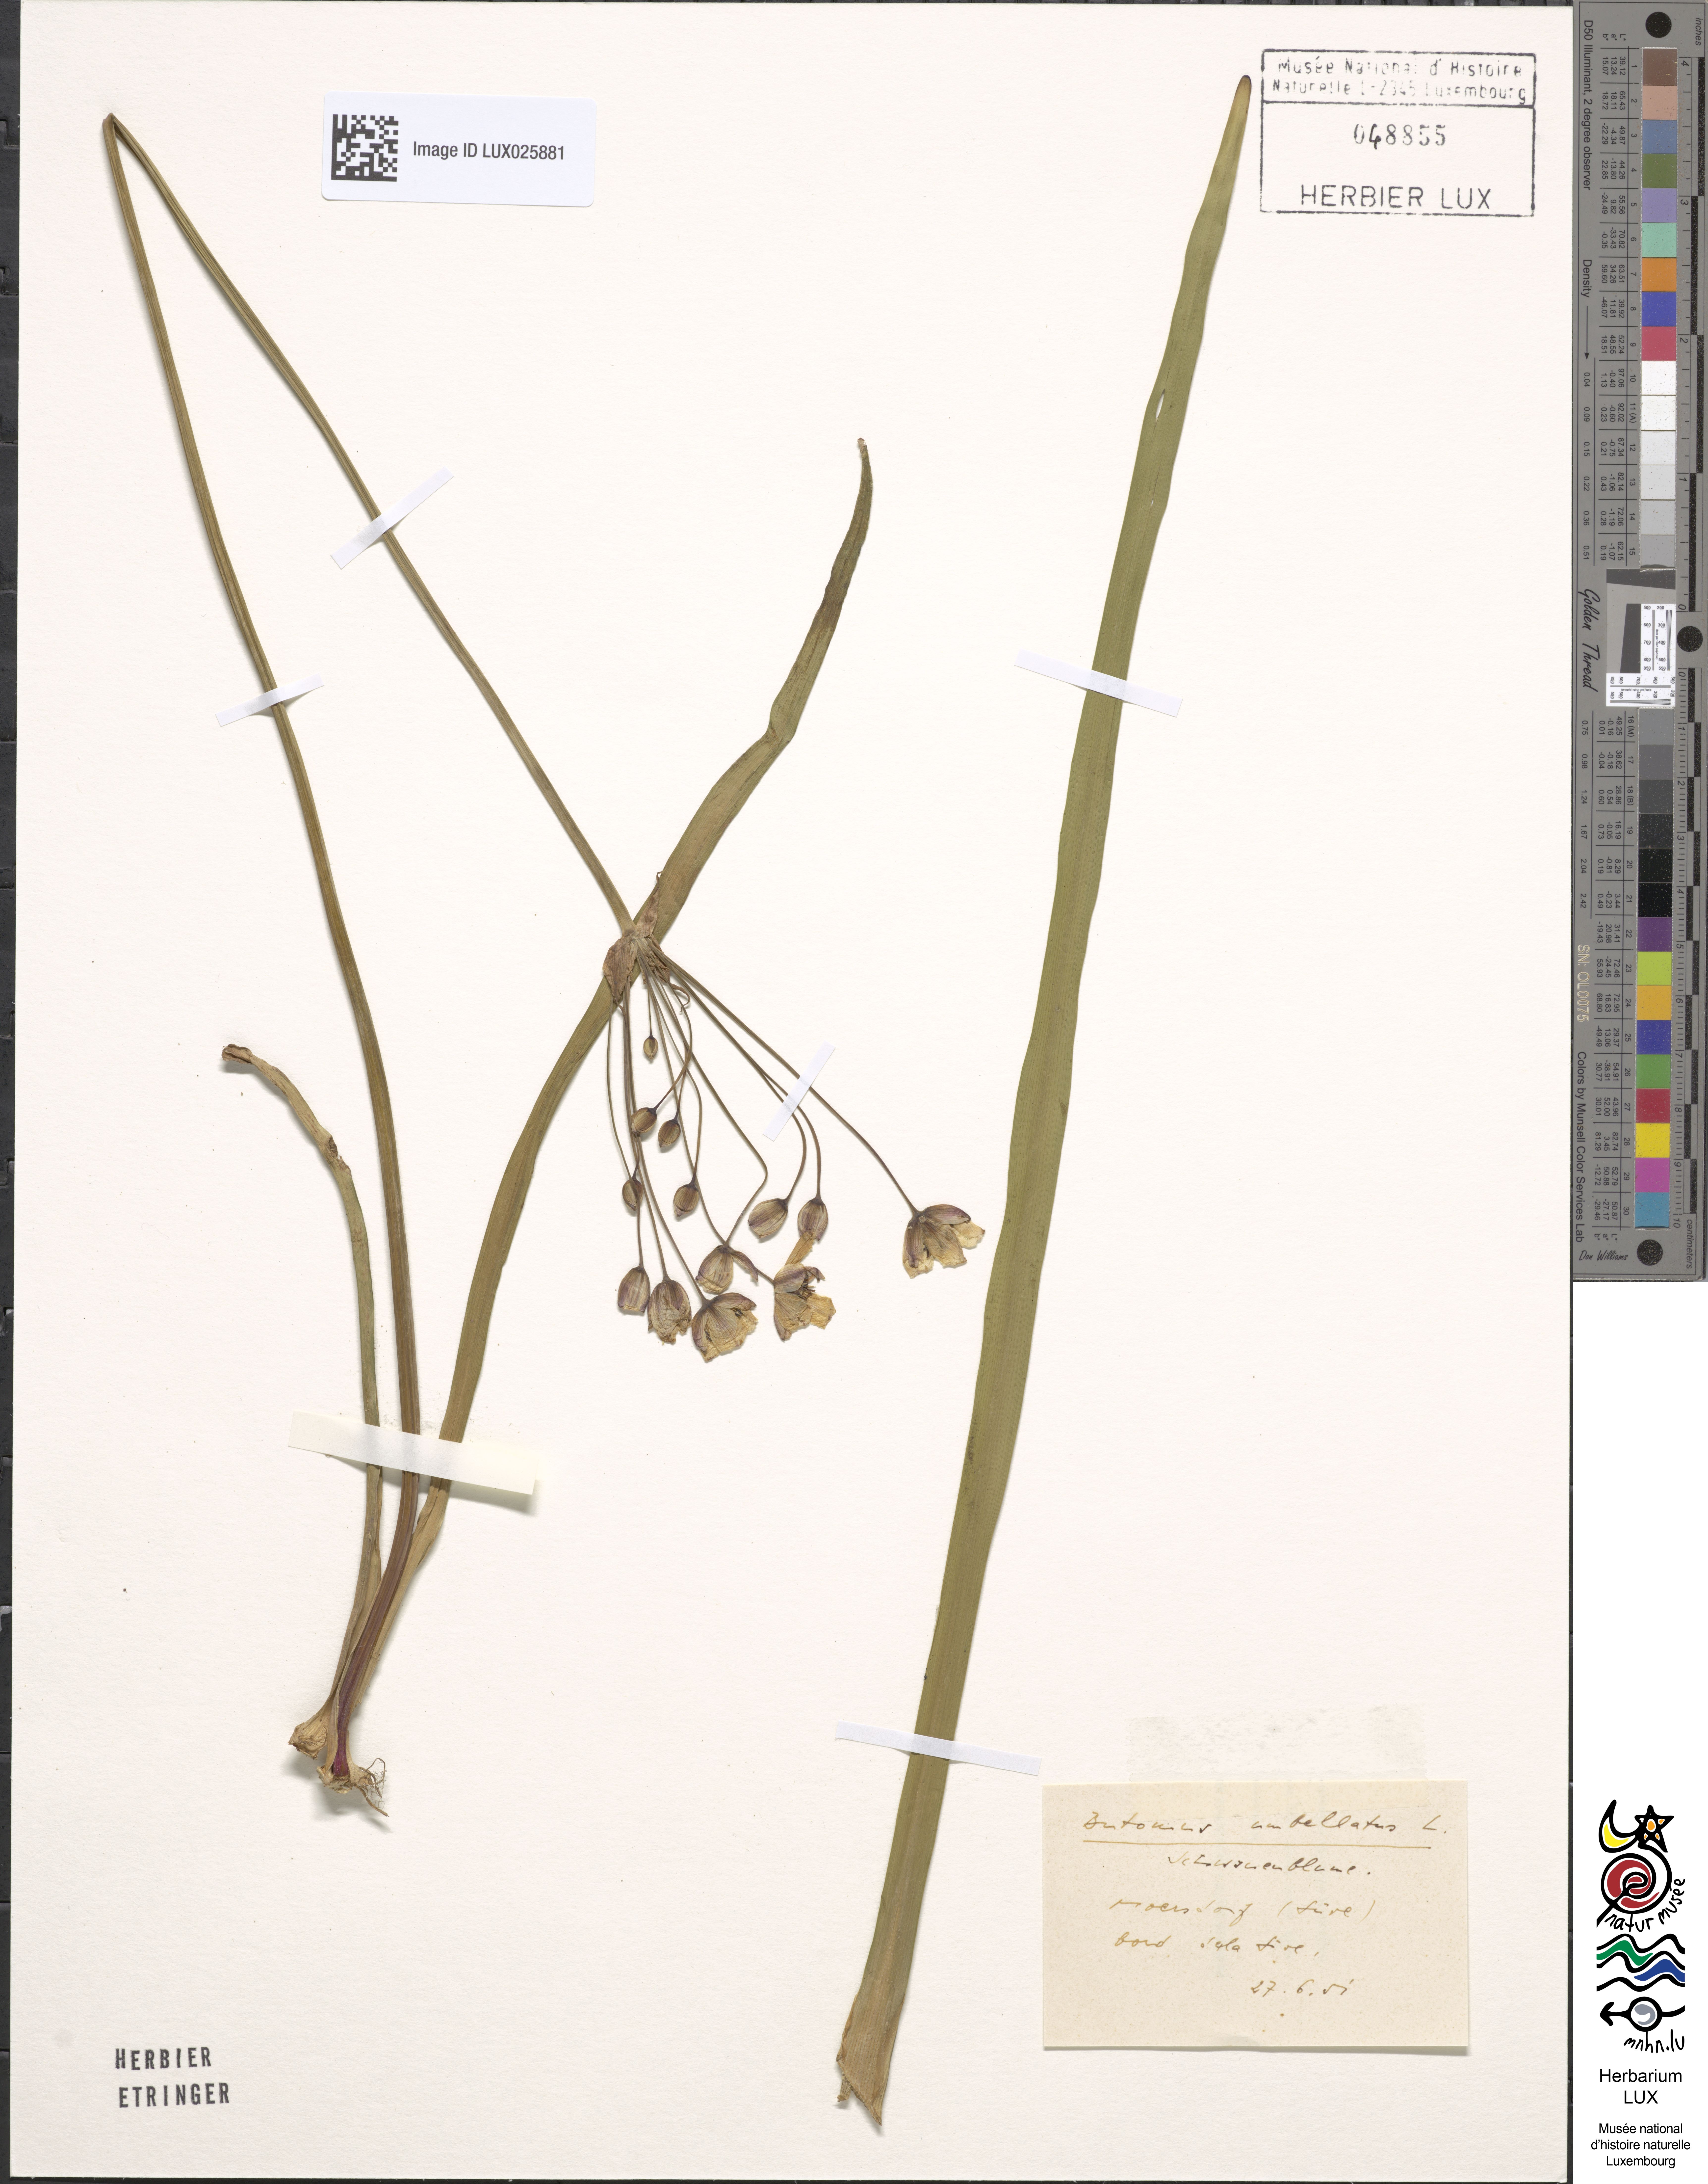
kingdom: Plantae
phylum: Tracheophyta
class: Liliopsida
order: Alismatales
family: Butomaceae
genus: Butomus
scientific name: Butomus umbellatus
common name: Flowering-rush
